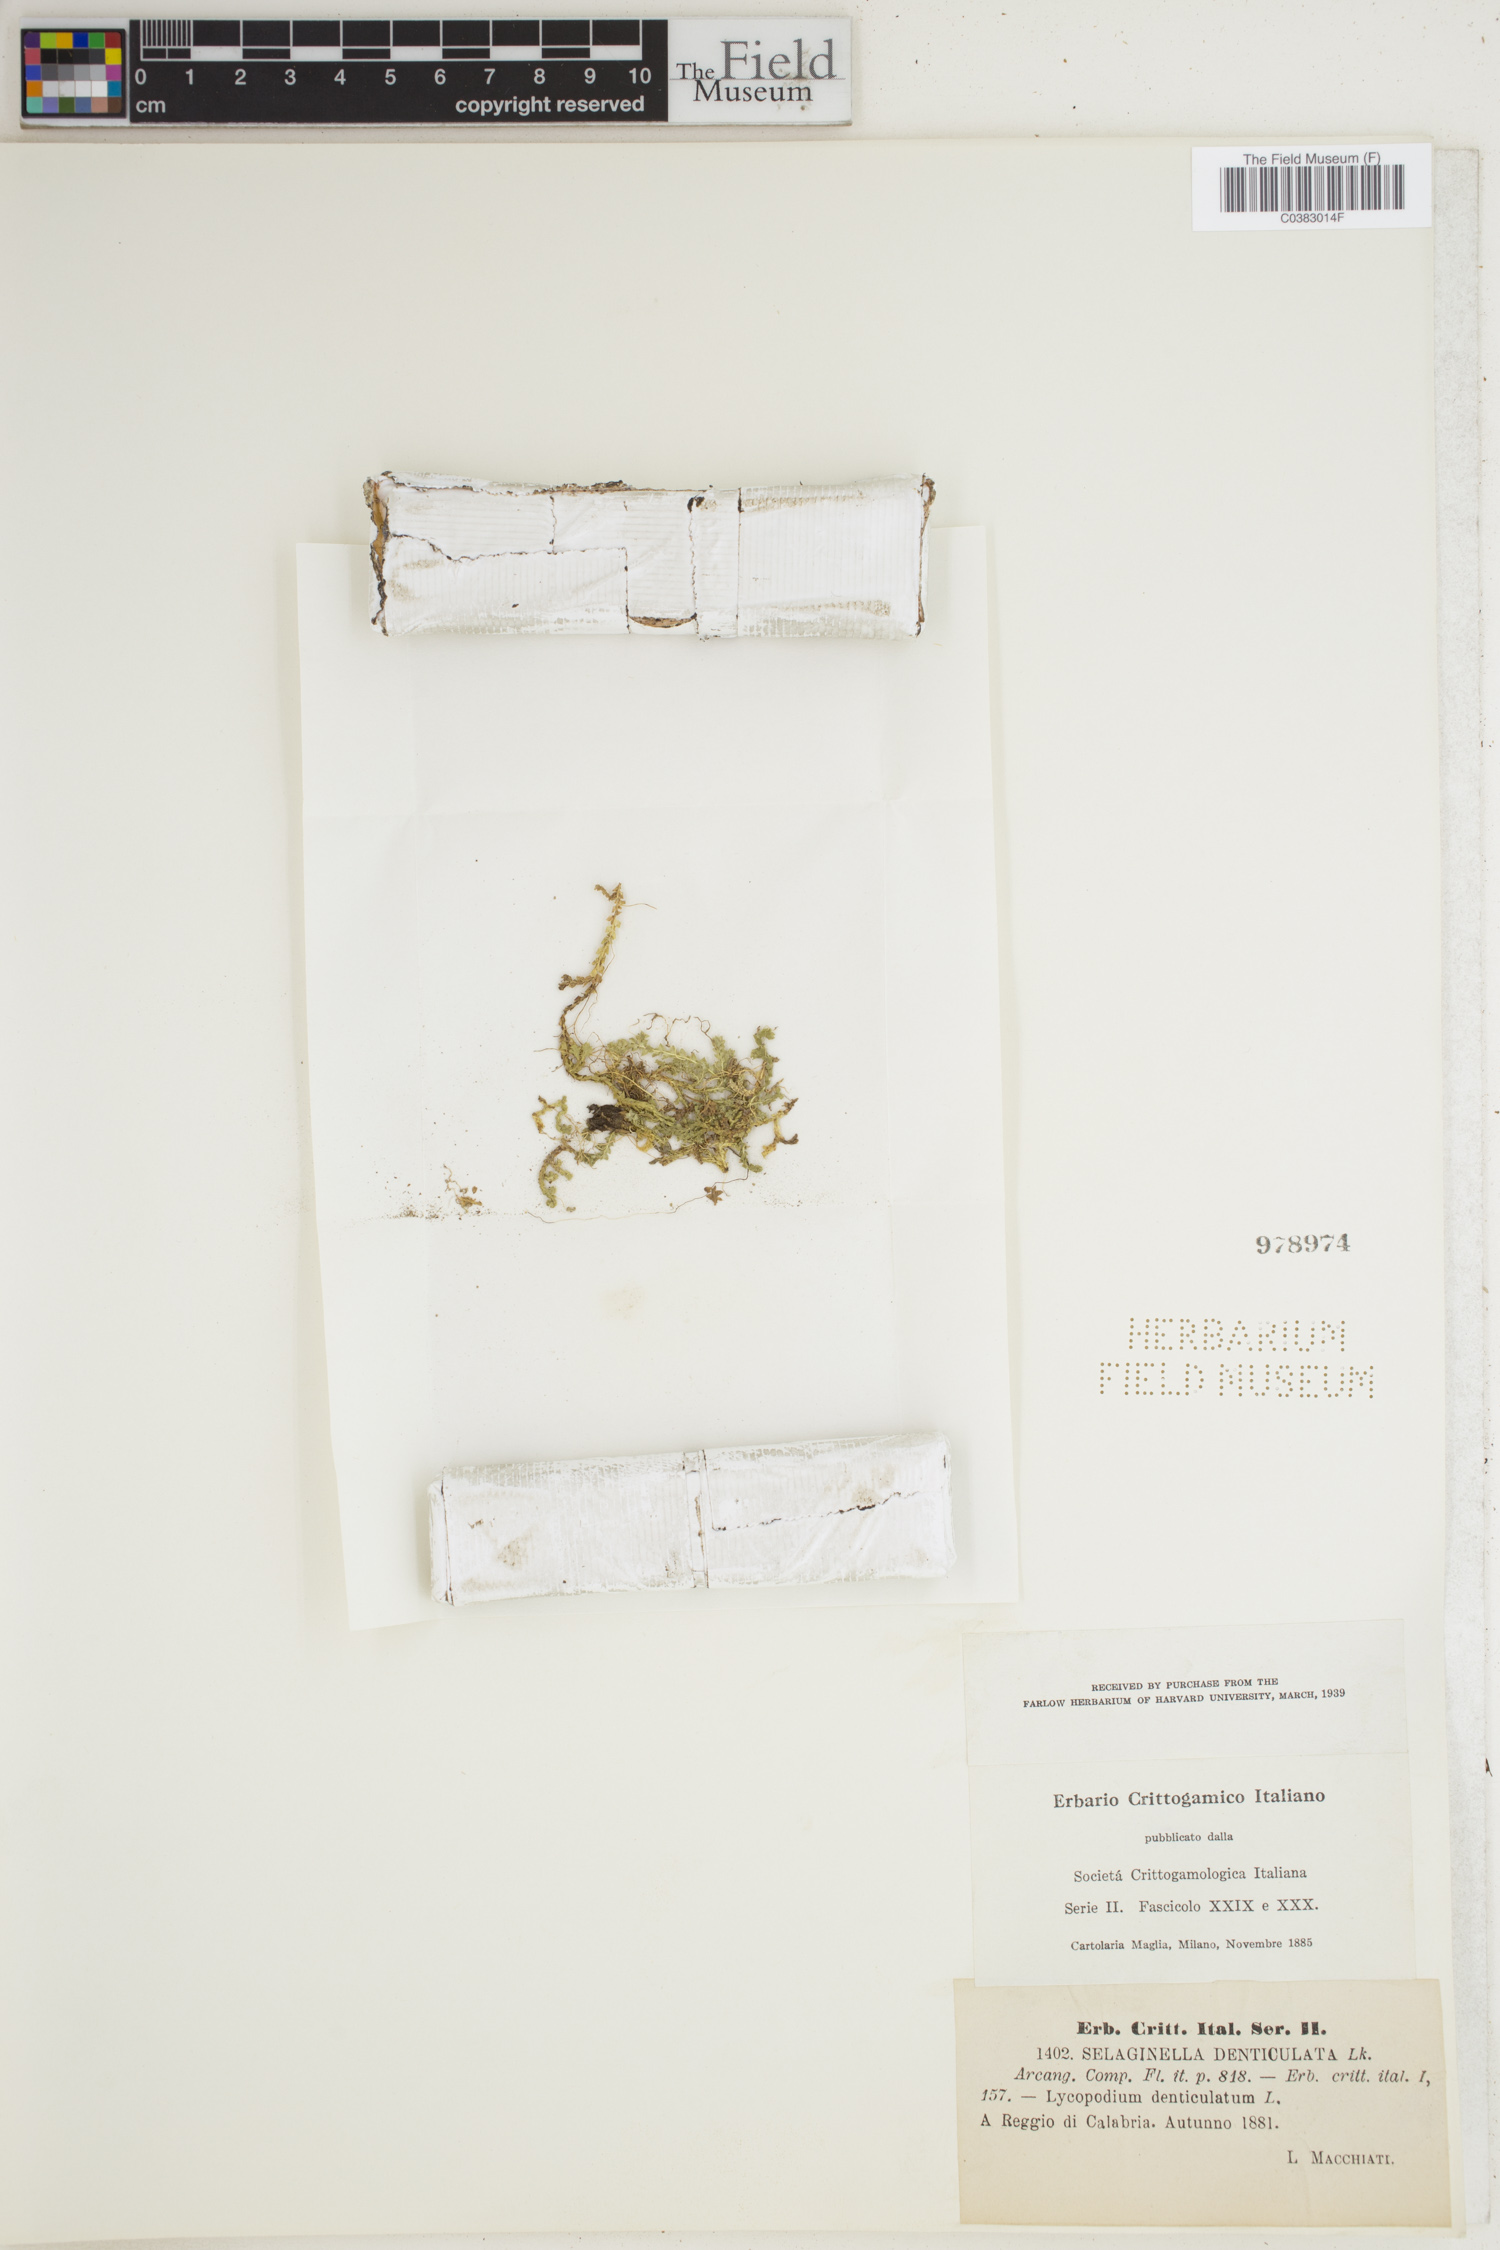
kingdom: Plantae
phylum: Tracheophyta
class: Lycopodiopsida
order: Selaginellales
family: Selaginellaceae
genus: Selaginella
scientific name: Selaginella denticulata
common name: Toothed-leaved clubmoss
